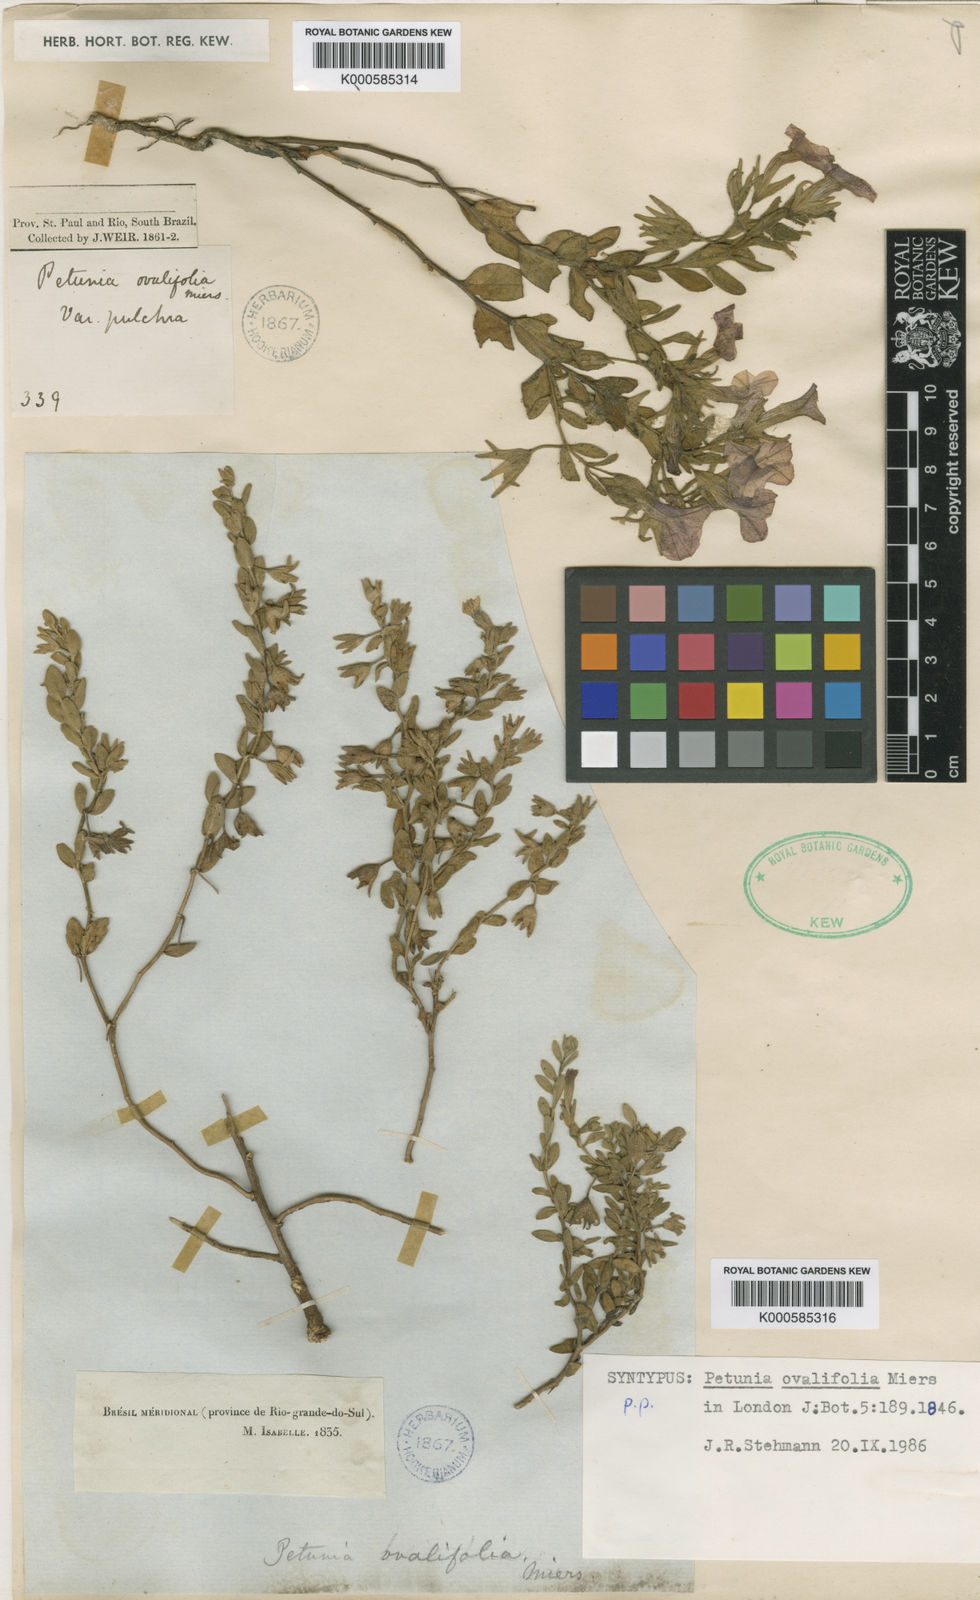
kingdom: Plantae
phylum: Tracheophyta
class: Magnoliopsida
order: Solanales
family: Solanaceae
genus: Calibrachoa
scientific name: Calibrachoa calycina
